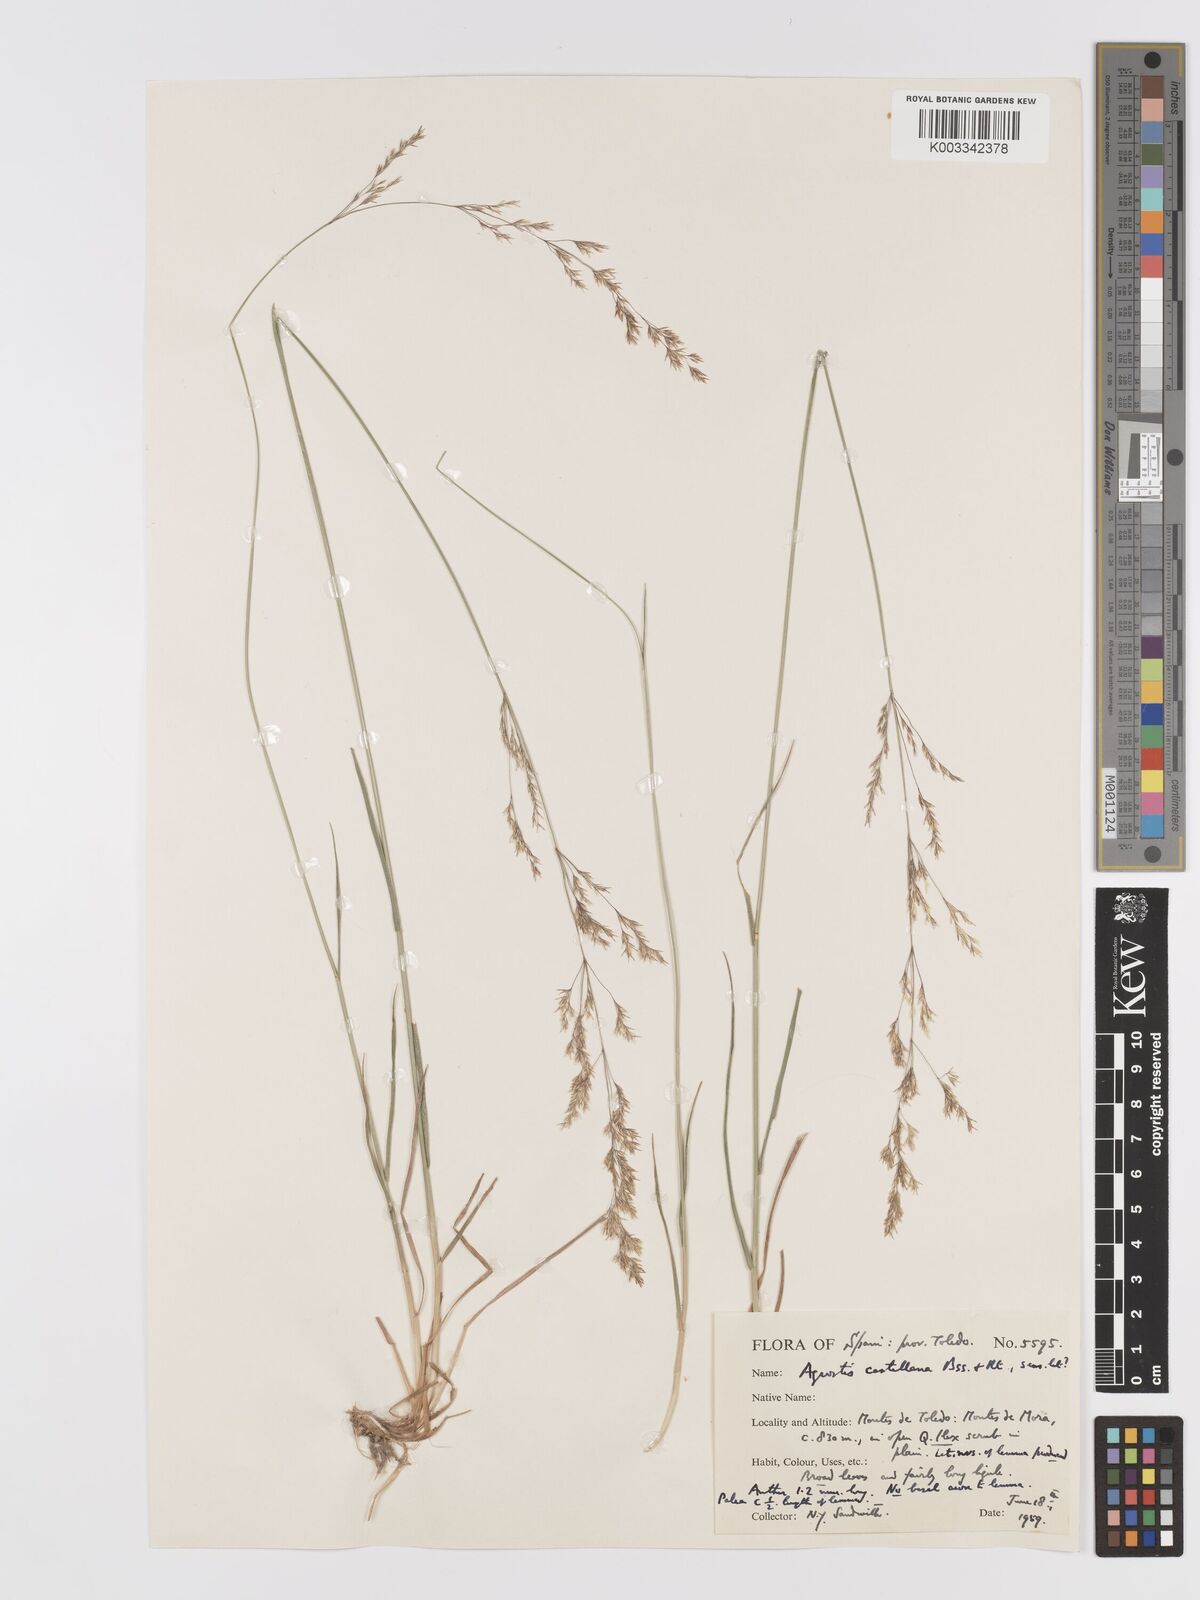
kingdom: Plantae
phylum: Tracheophyta
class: Liliopsida
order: Poales
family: Poaceae
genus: Agrostis
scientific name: Agrostis castellana
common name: Highland bent
